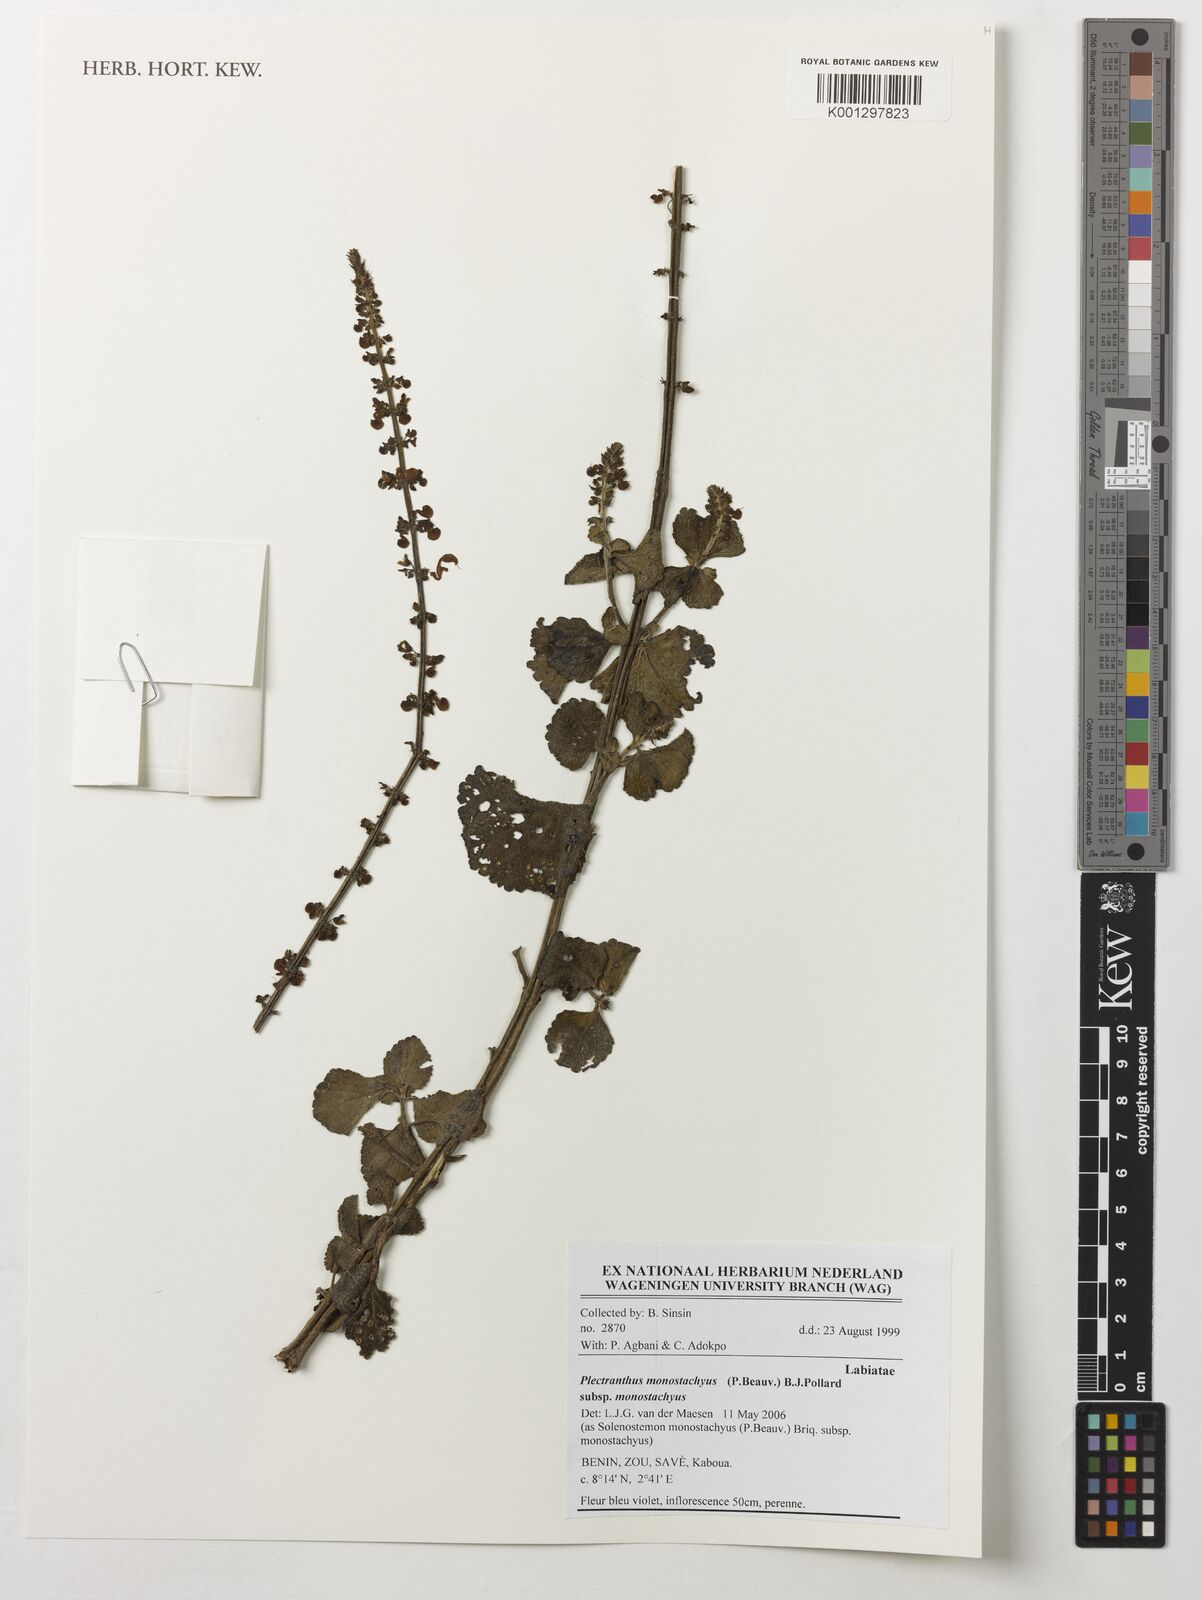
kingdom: Plantae
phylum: Tracheophyta
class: Magnoliopsida
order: Lamiales
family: Lamiaceae
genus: Coleus
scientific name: Coleus monostachyus
